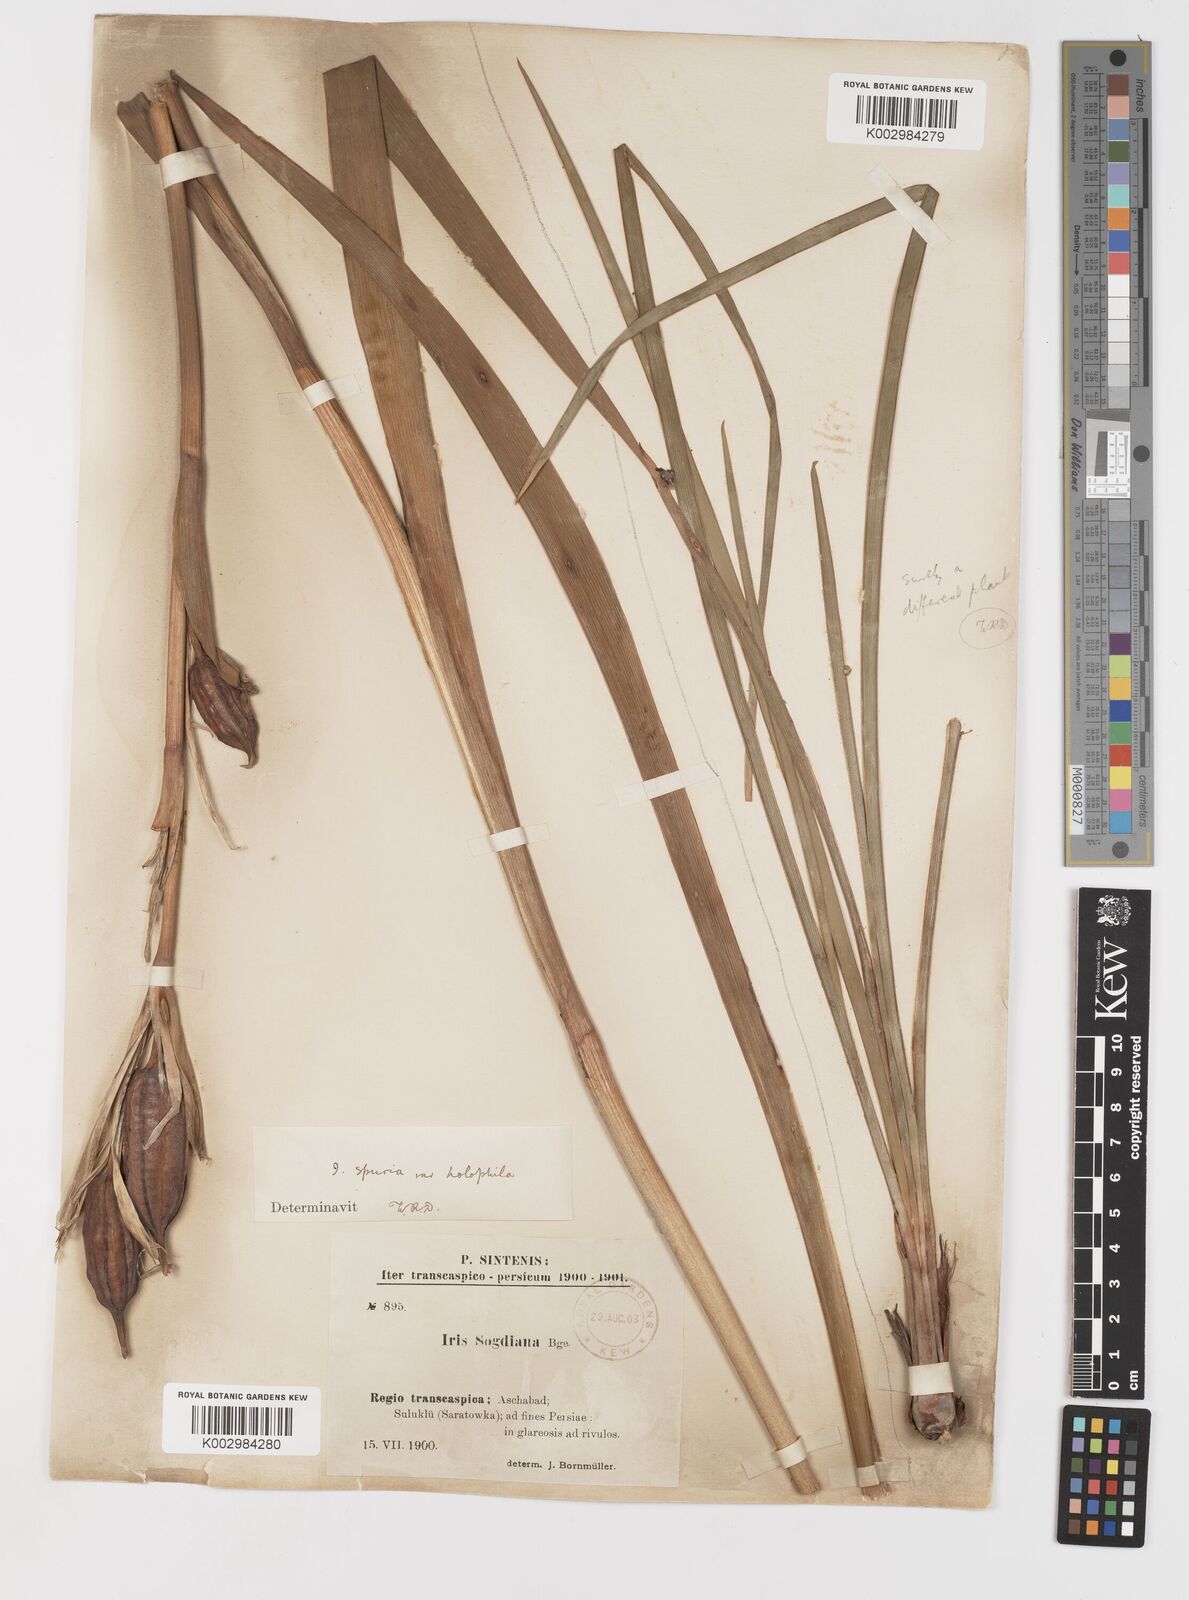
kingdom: Plantae
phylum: Tracheophyta
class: Liliopsida
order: Asparagales
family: Iridaceae
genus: Iris
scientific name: Iris spuria
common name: Blue iris
